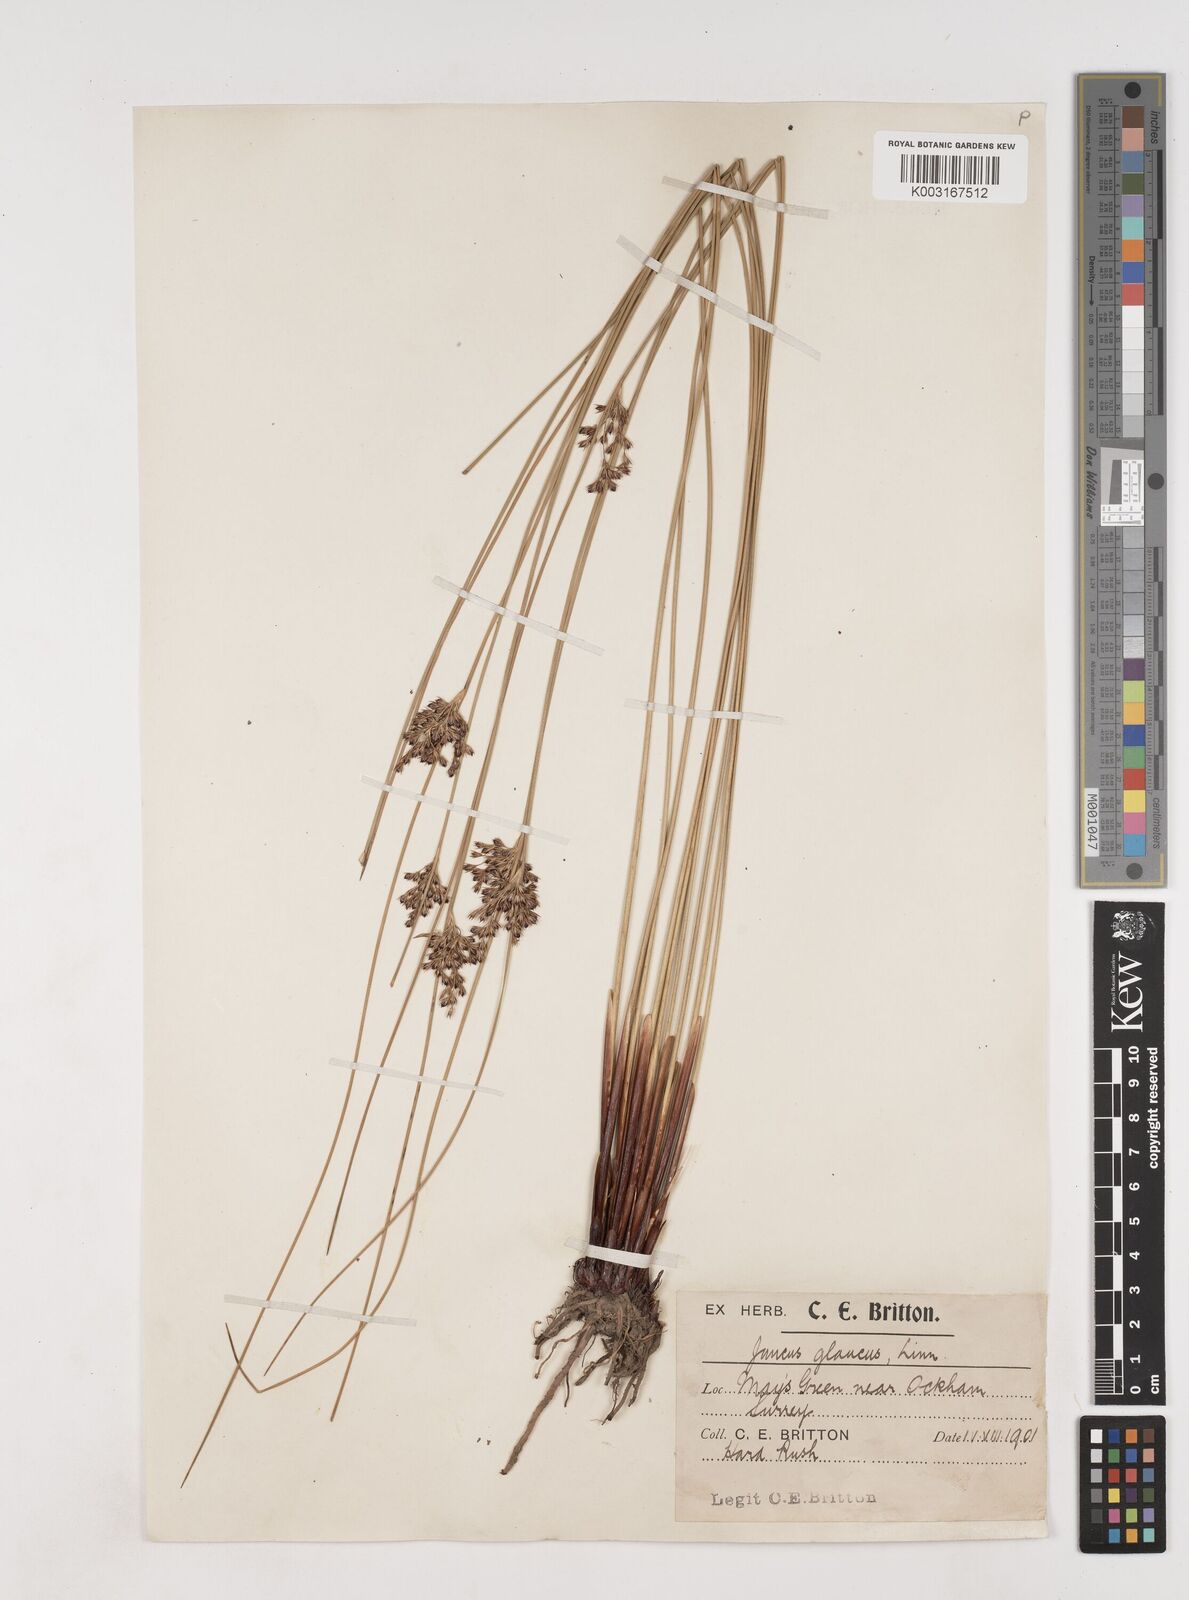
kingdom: Plantae
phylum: Tracheophyta
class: Liliopsida
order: Poales
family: Juncaceae
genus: Juncus
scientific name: Juncus inflexus
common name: Hard rush
